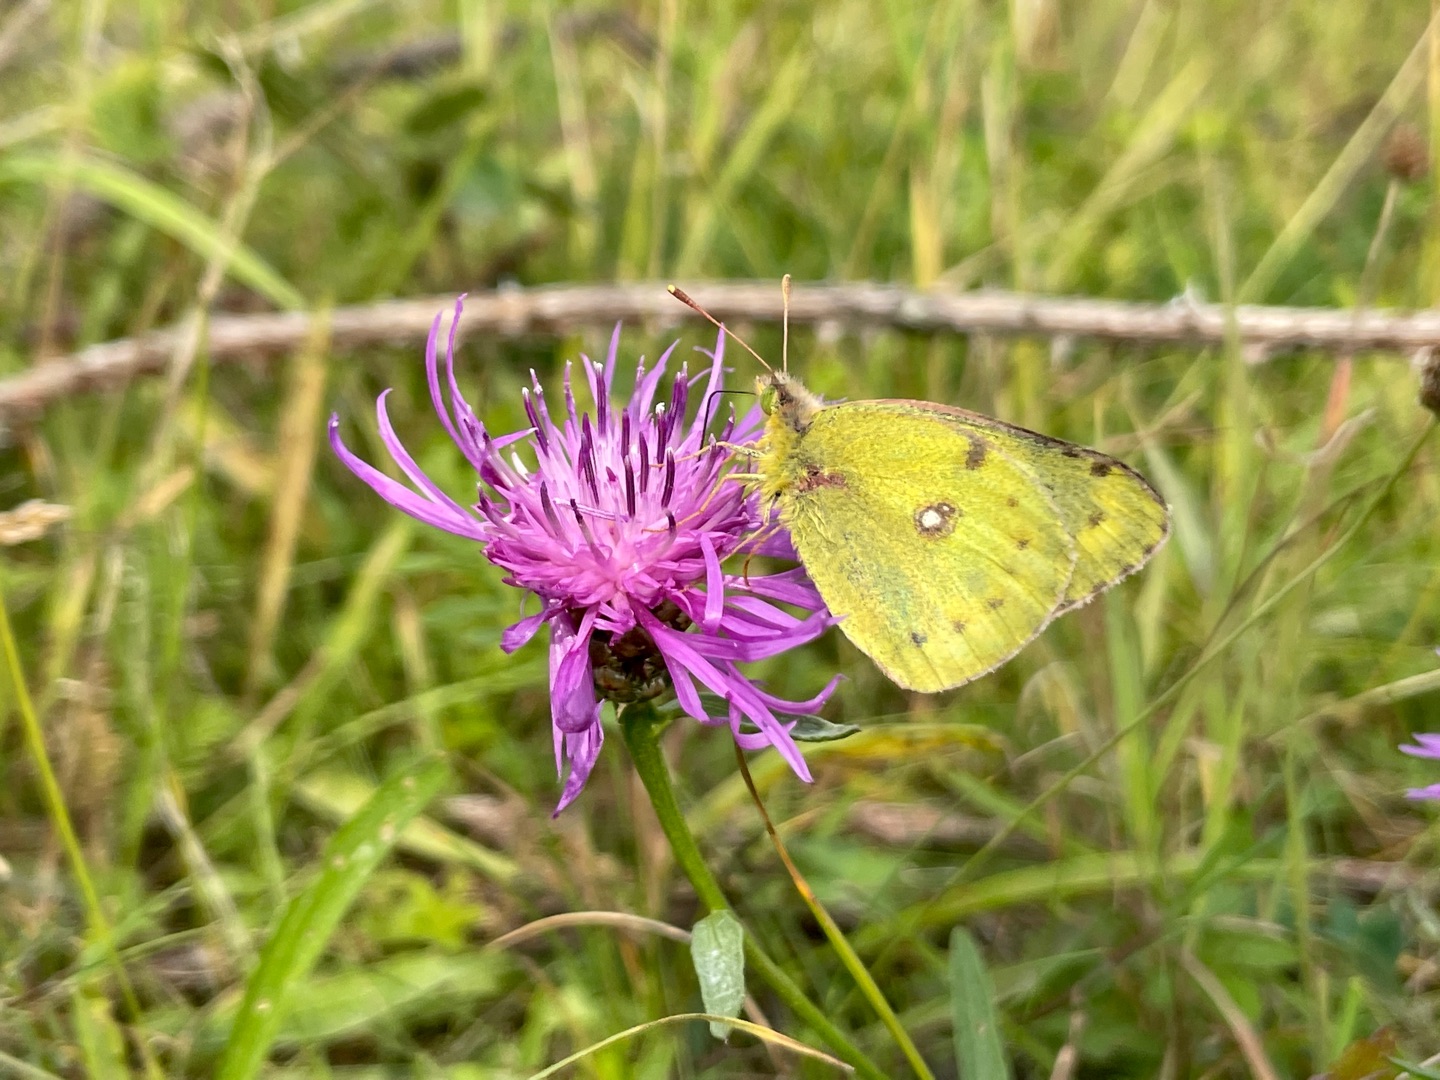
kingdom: Animalia
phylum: Arthropoda
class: Insecta
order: Lepidoptera
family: Pieridae
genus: Colias
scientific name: Colias hyale
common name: Gul høsommerfugl
